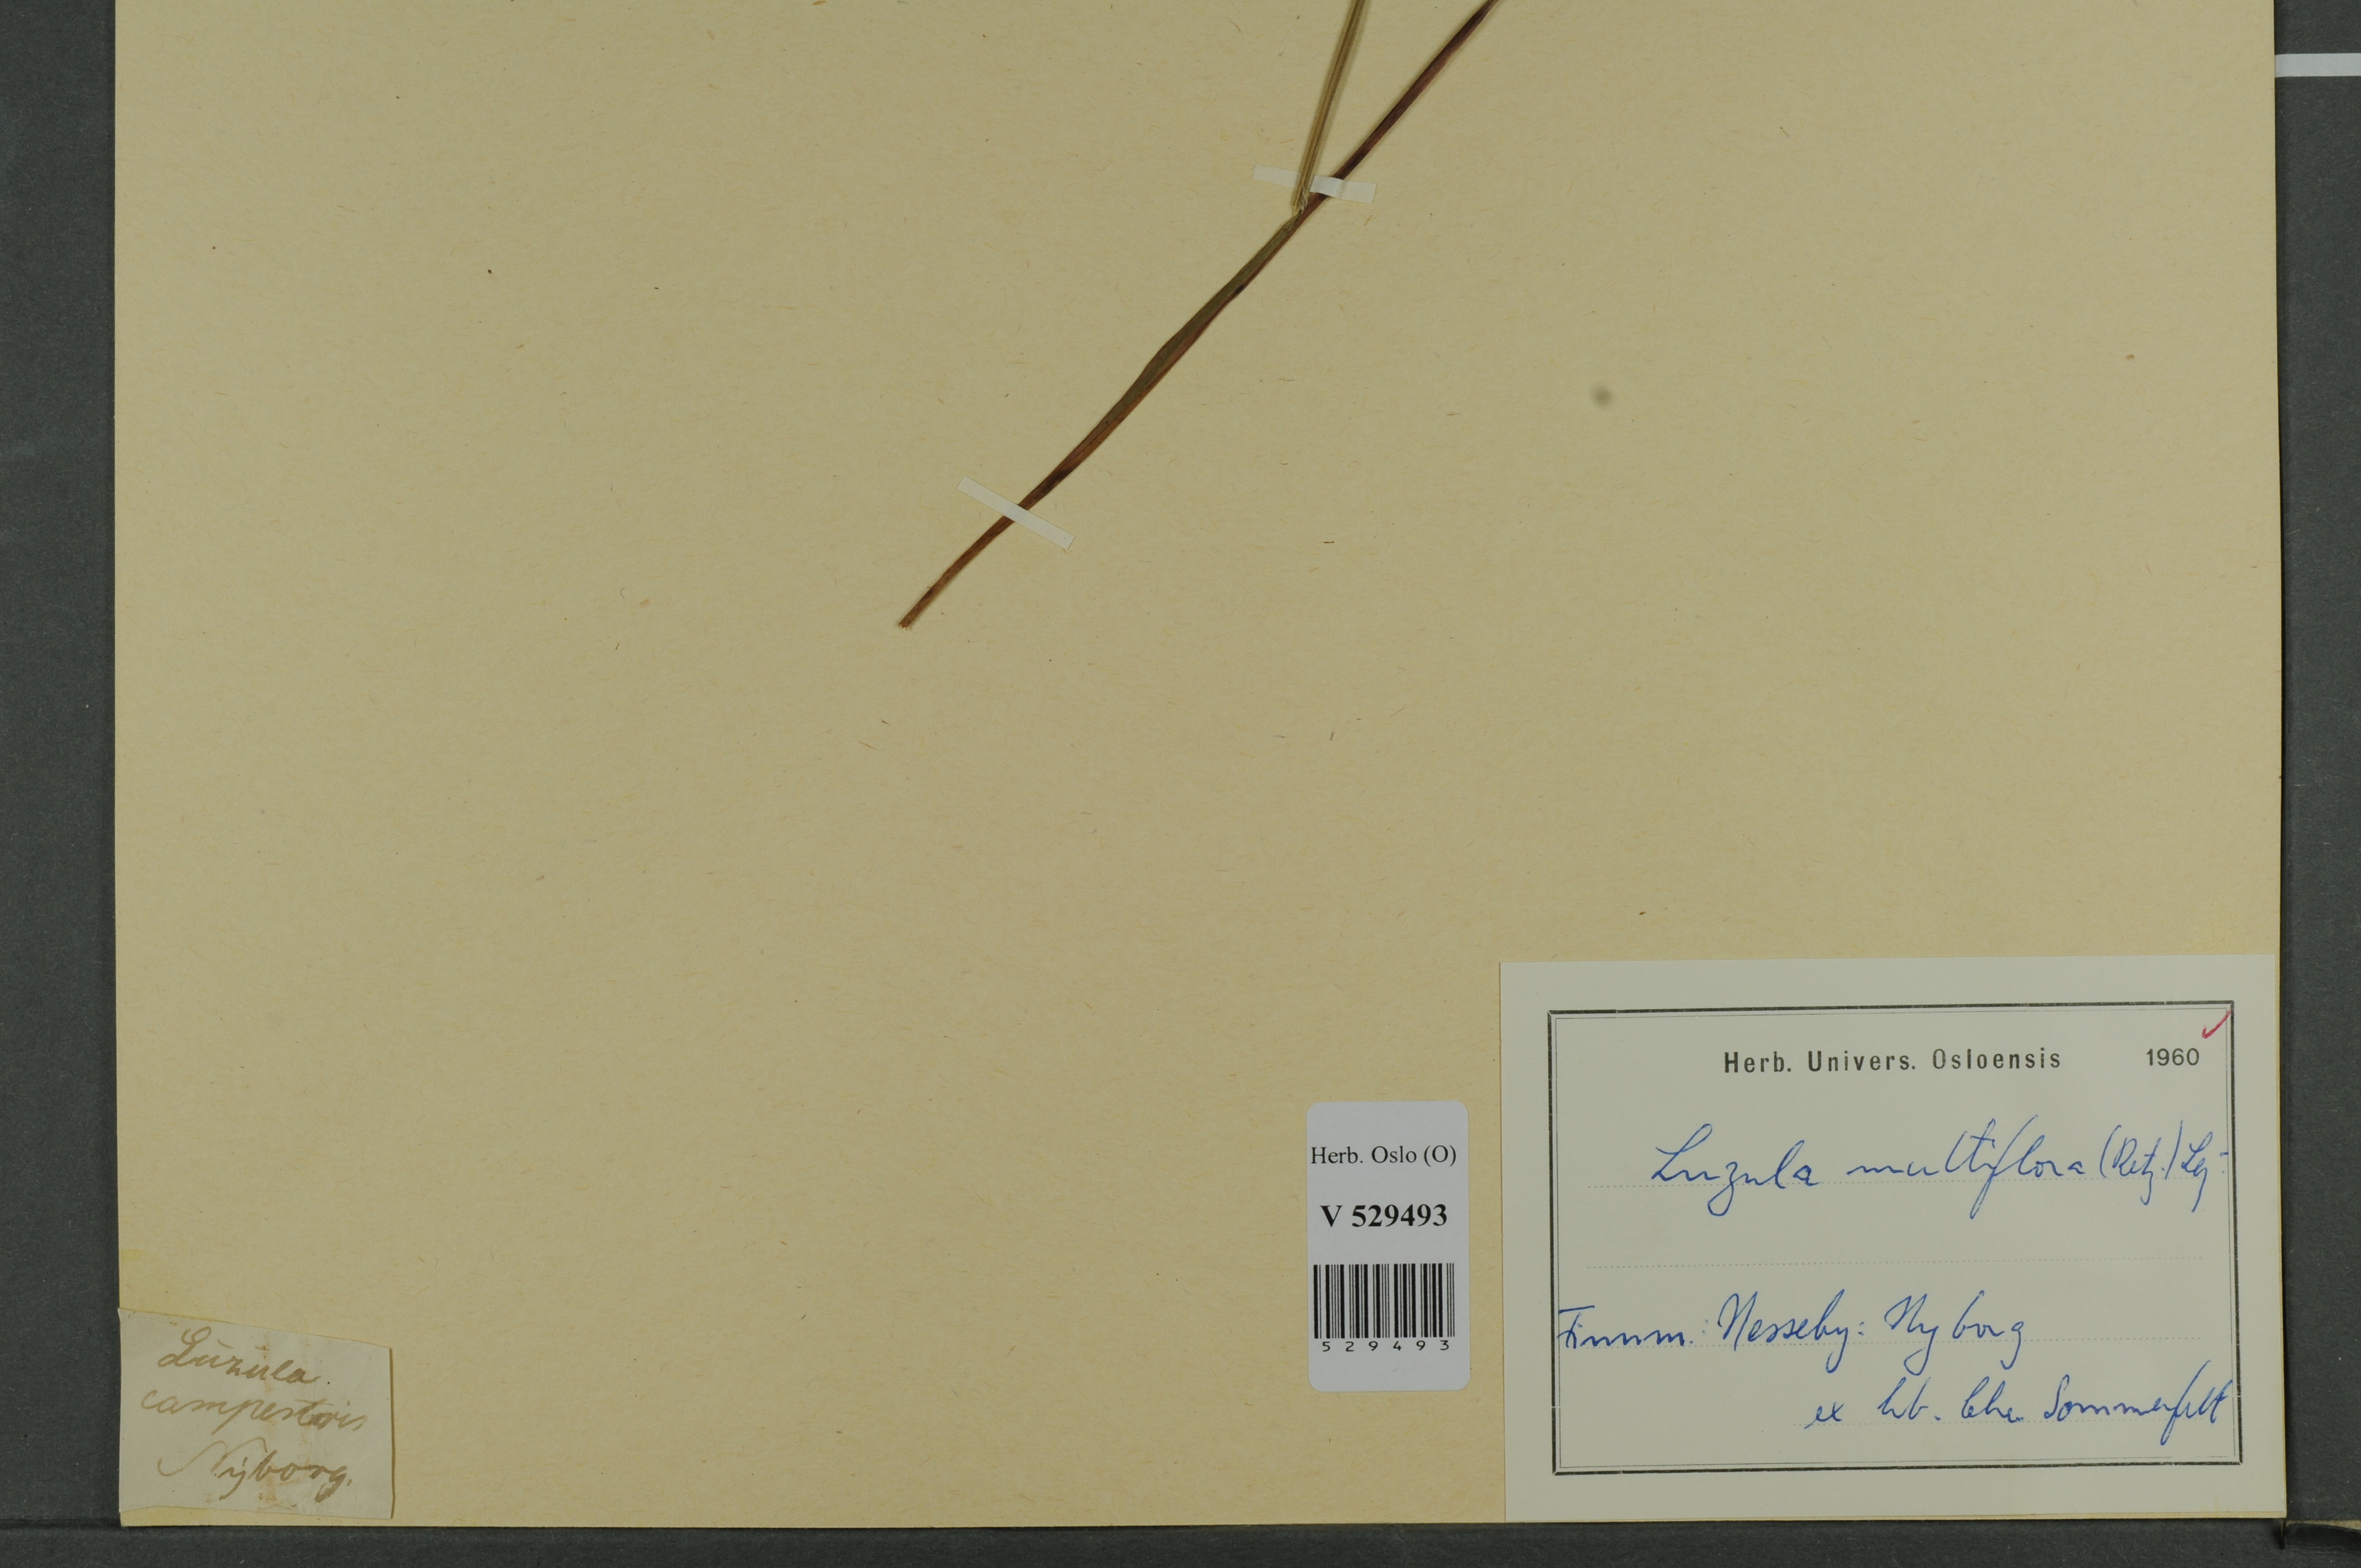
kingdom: Plantae
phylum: Tracheophyta
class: Liliopsida
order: Poales
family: Juncaceae
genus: Luzula
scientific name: Luzula multiflora
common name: Heath wood-rush
